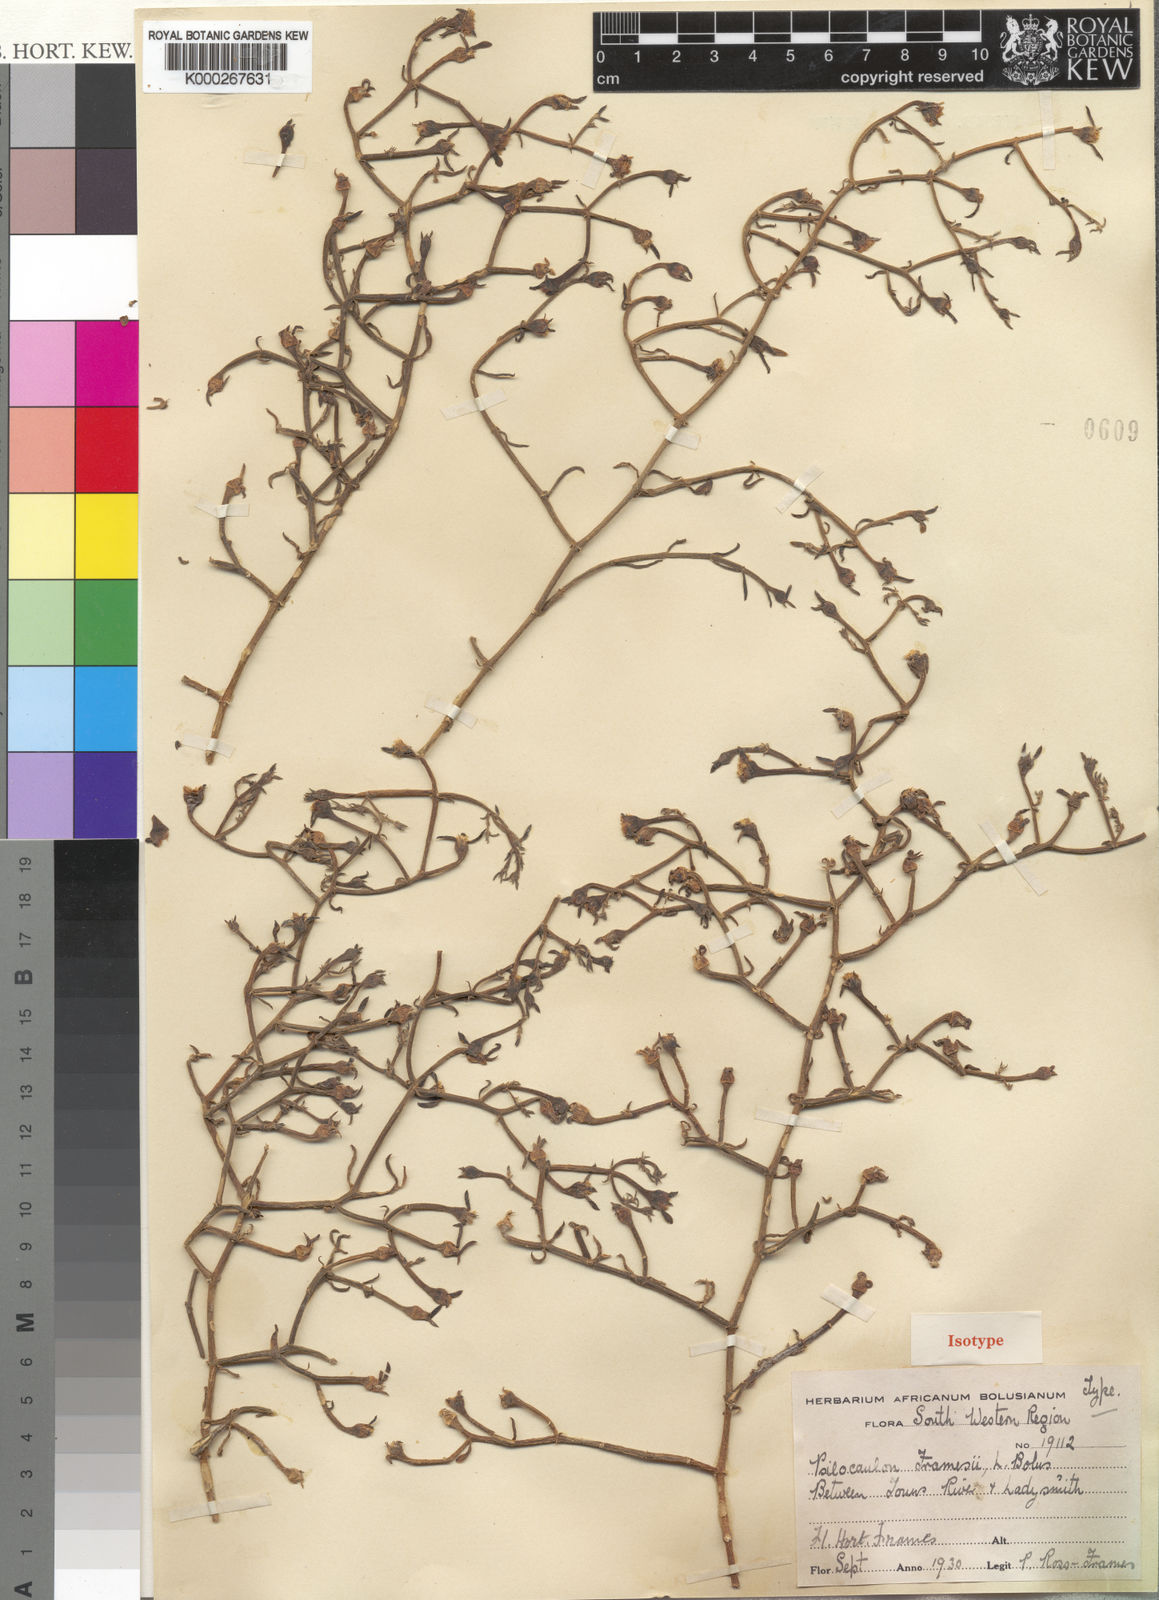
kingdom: Plantae
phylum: Tracheophyta
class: Magnoliopsida
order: Caryophyllales
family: Aizoaceae
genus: Mesembryanthemum
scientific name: Mesembryanthemum junceum
